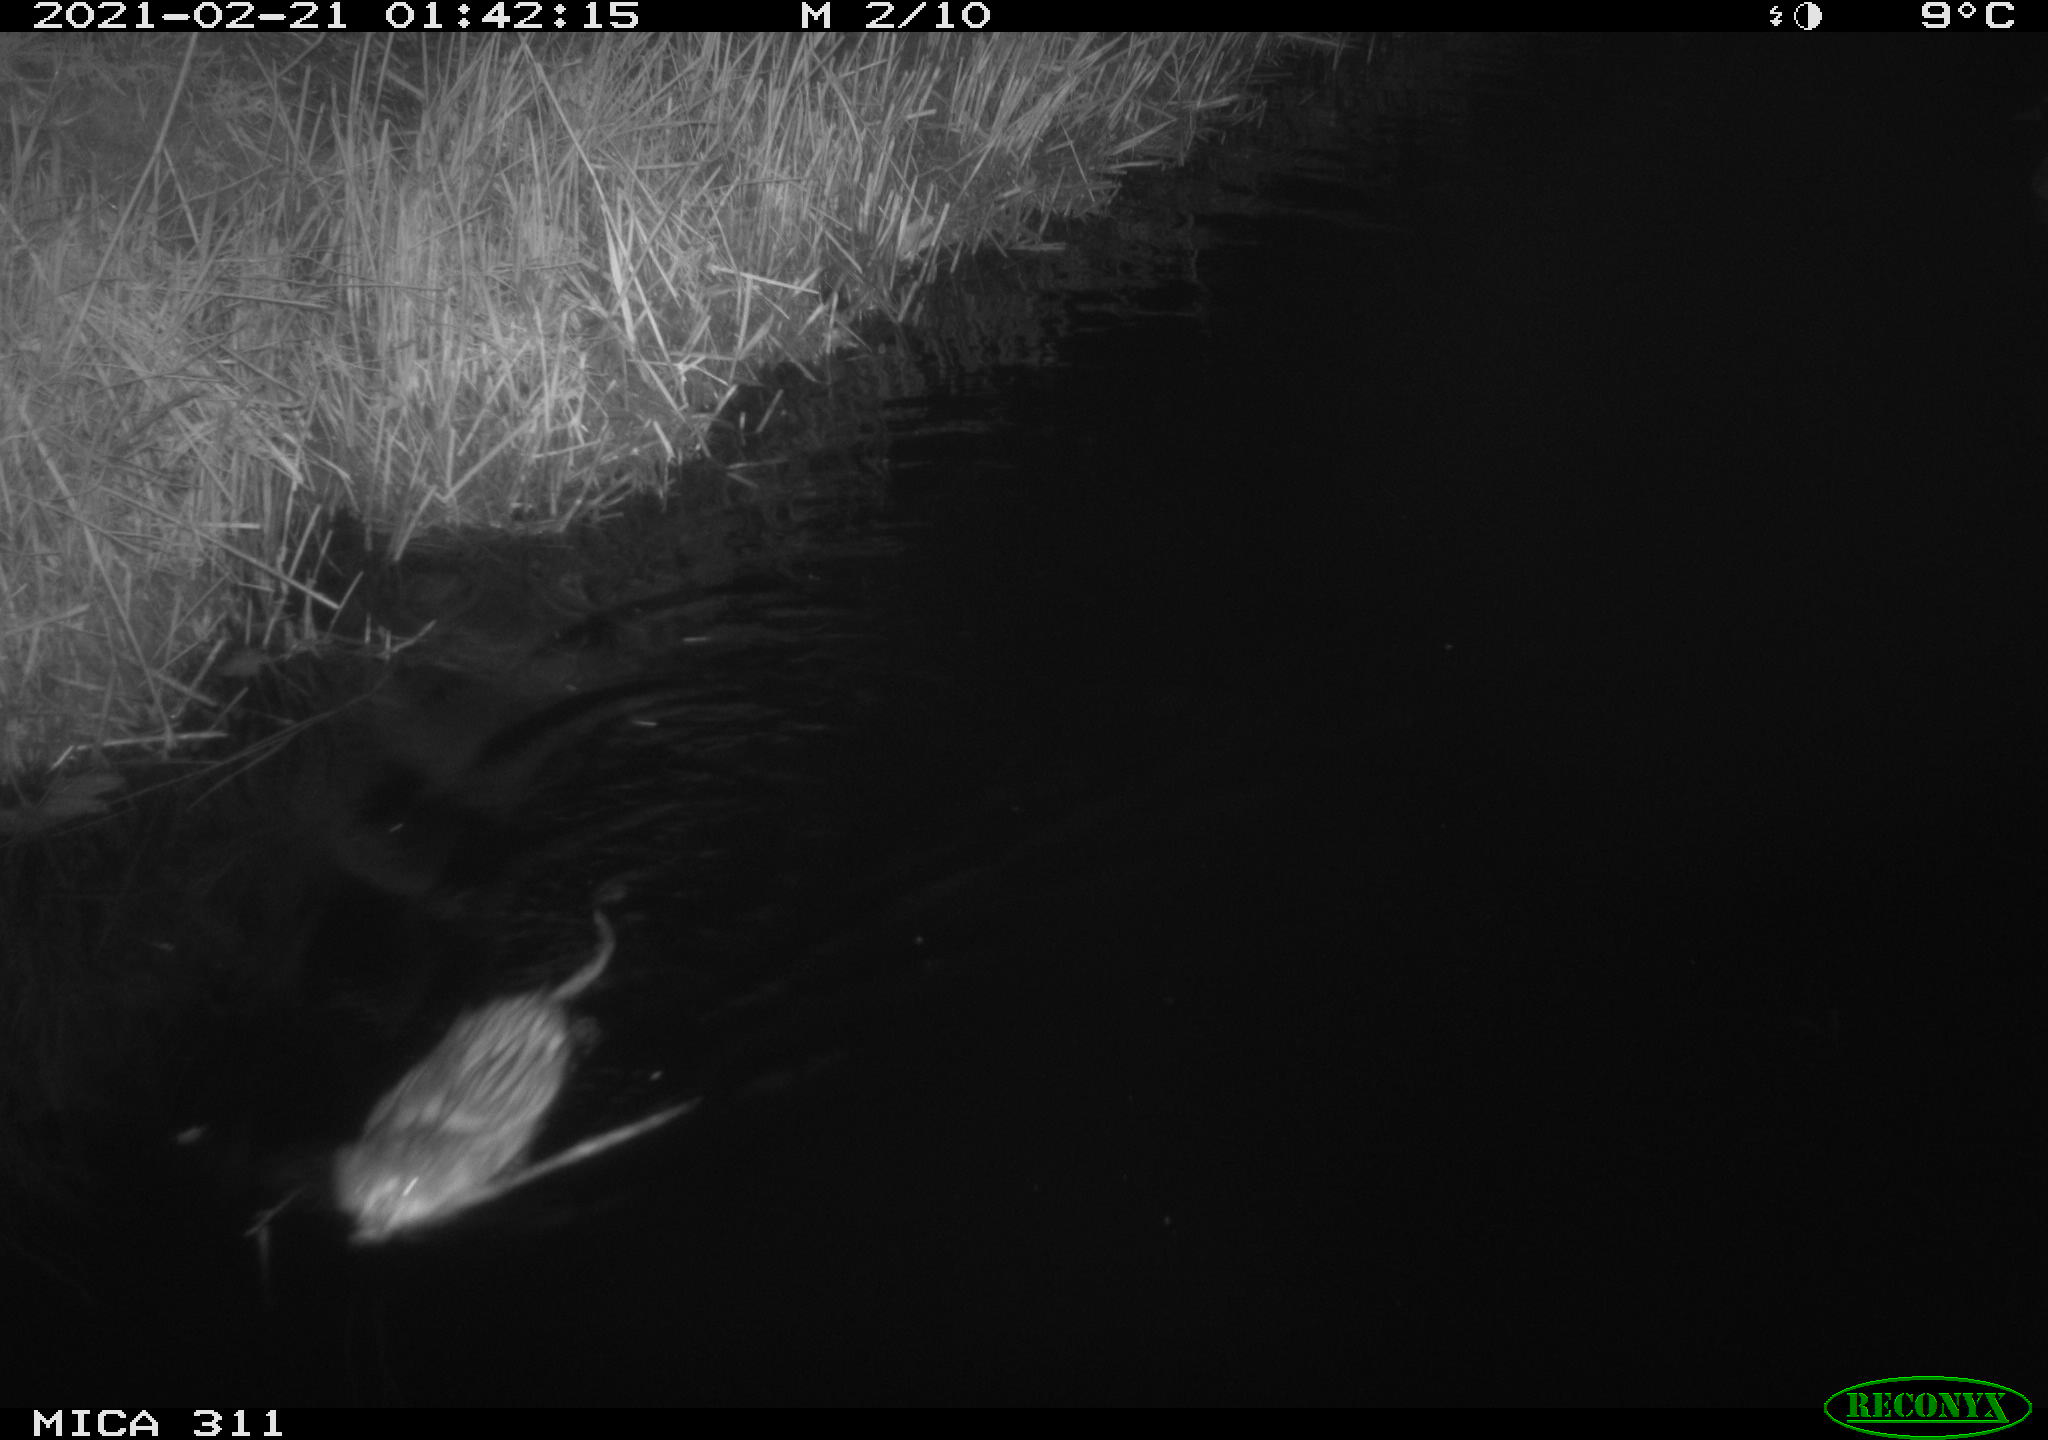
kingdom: Animalia
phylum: Chordata
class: Mammalia
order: Rodentia
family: Cricetidae
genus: Ondatra
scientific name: Ondatra zibethicus
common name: Muskrat
